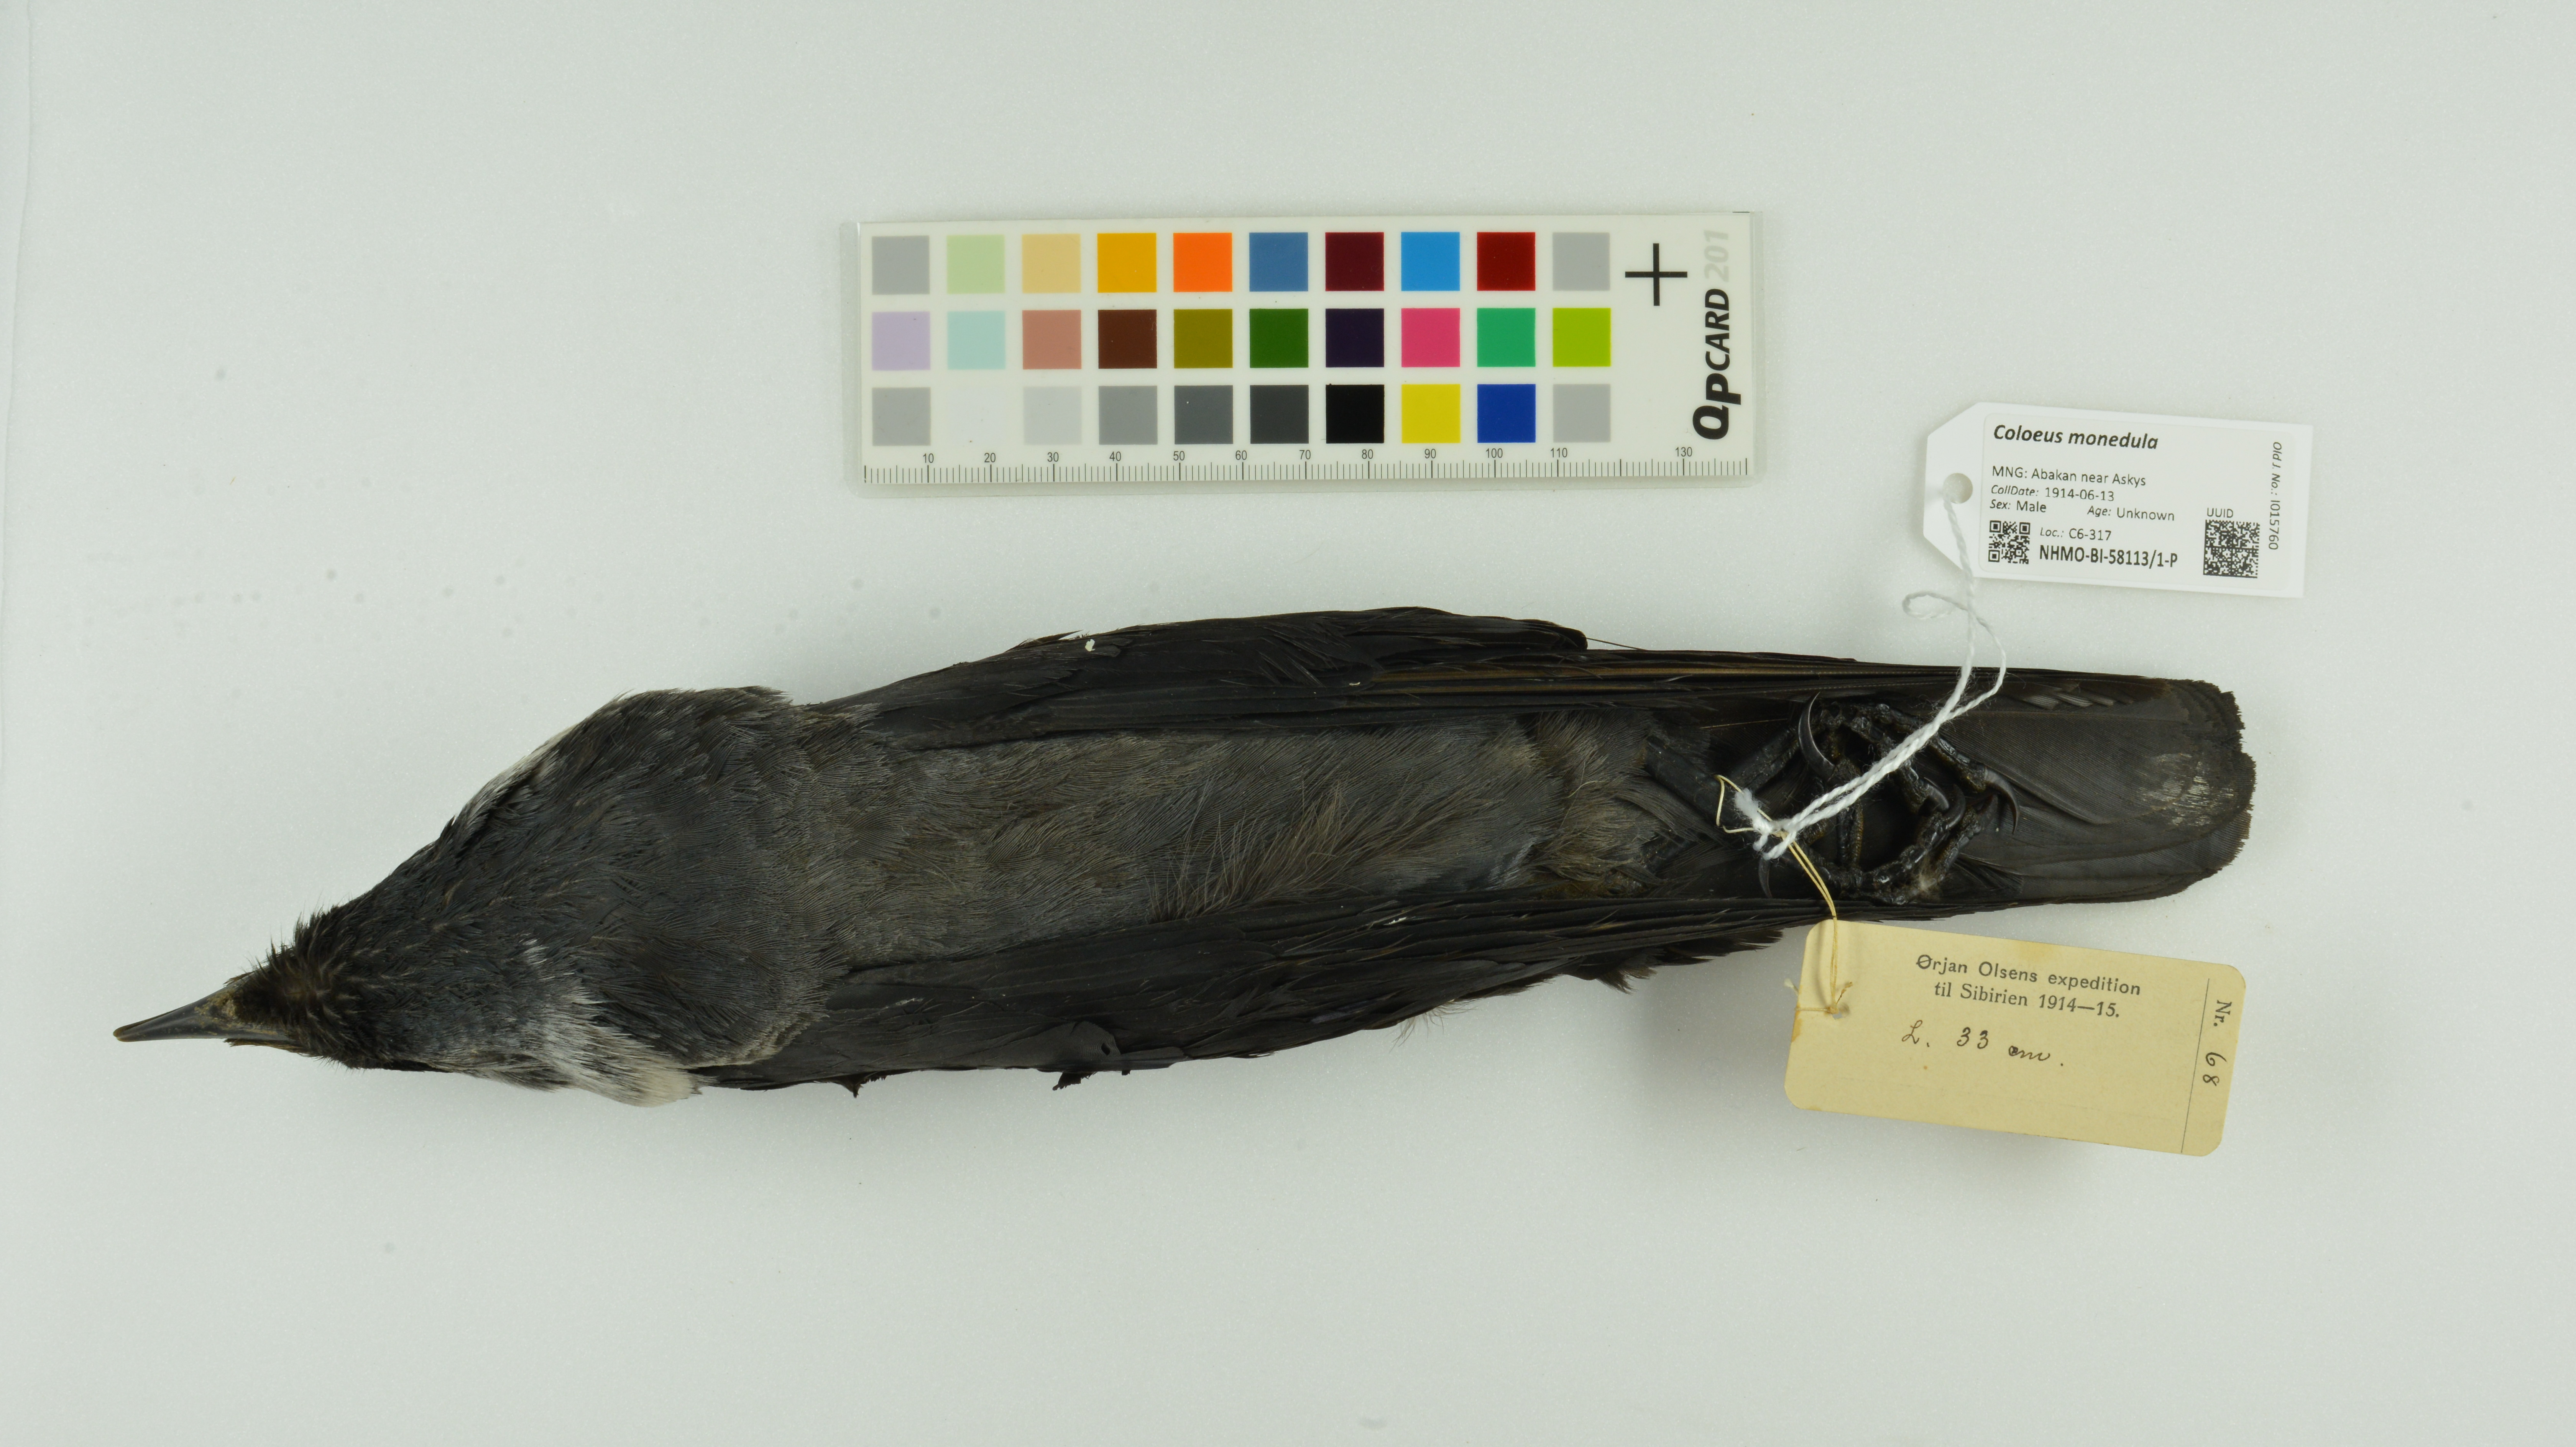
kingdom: Animalia
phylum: Chordata
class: Aves
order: Passeriformes
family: Corvidae
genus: Coloeus
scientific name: Coloeus monedula
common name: Western jackdaw
